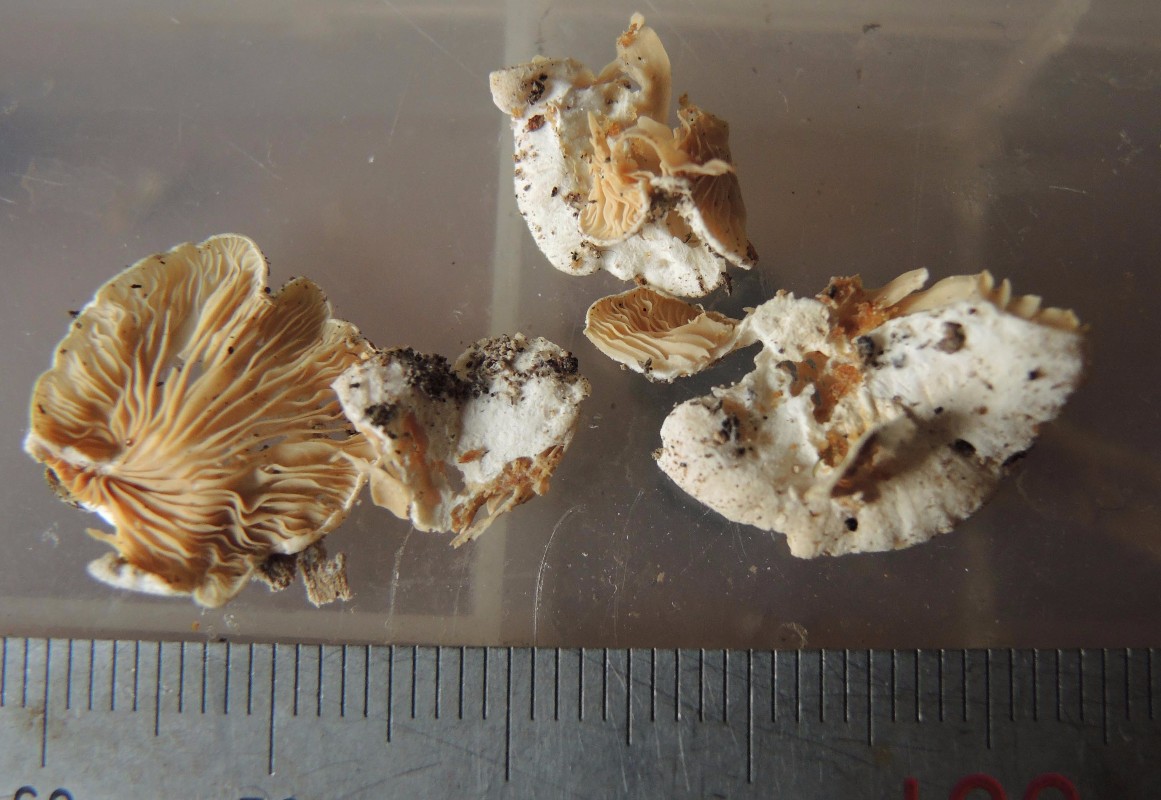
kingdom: Fungi
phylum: Basidiomycota
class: Agaricomycetes
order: Agaricales
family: Entolomataceae
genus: Clitopilus
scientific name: Clitopilus hobsonii
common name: Miller's oysterling
